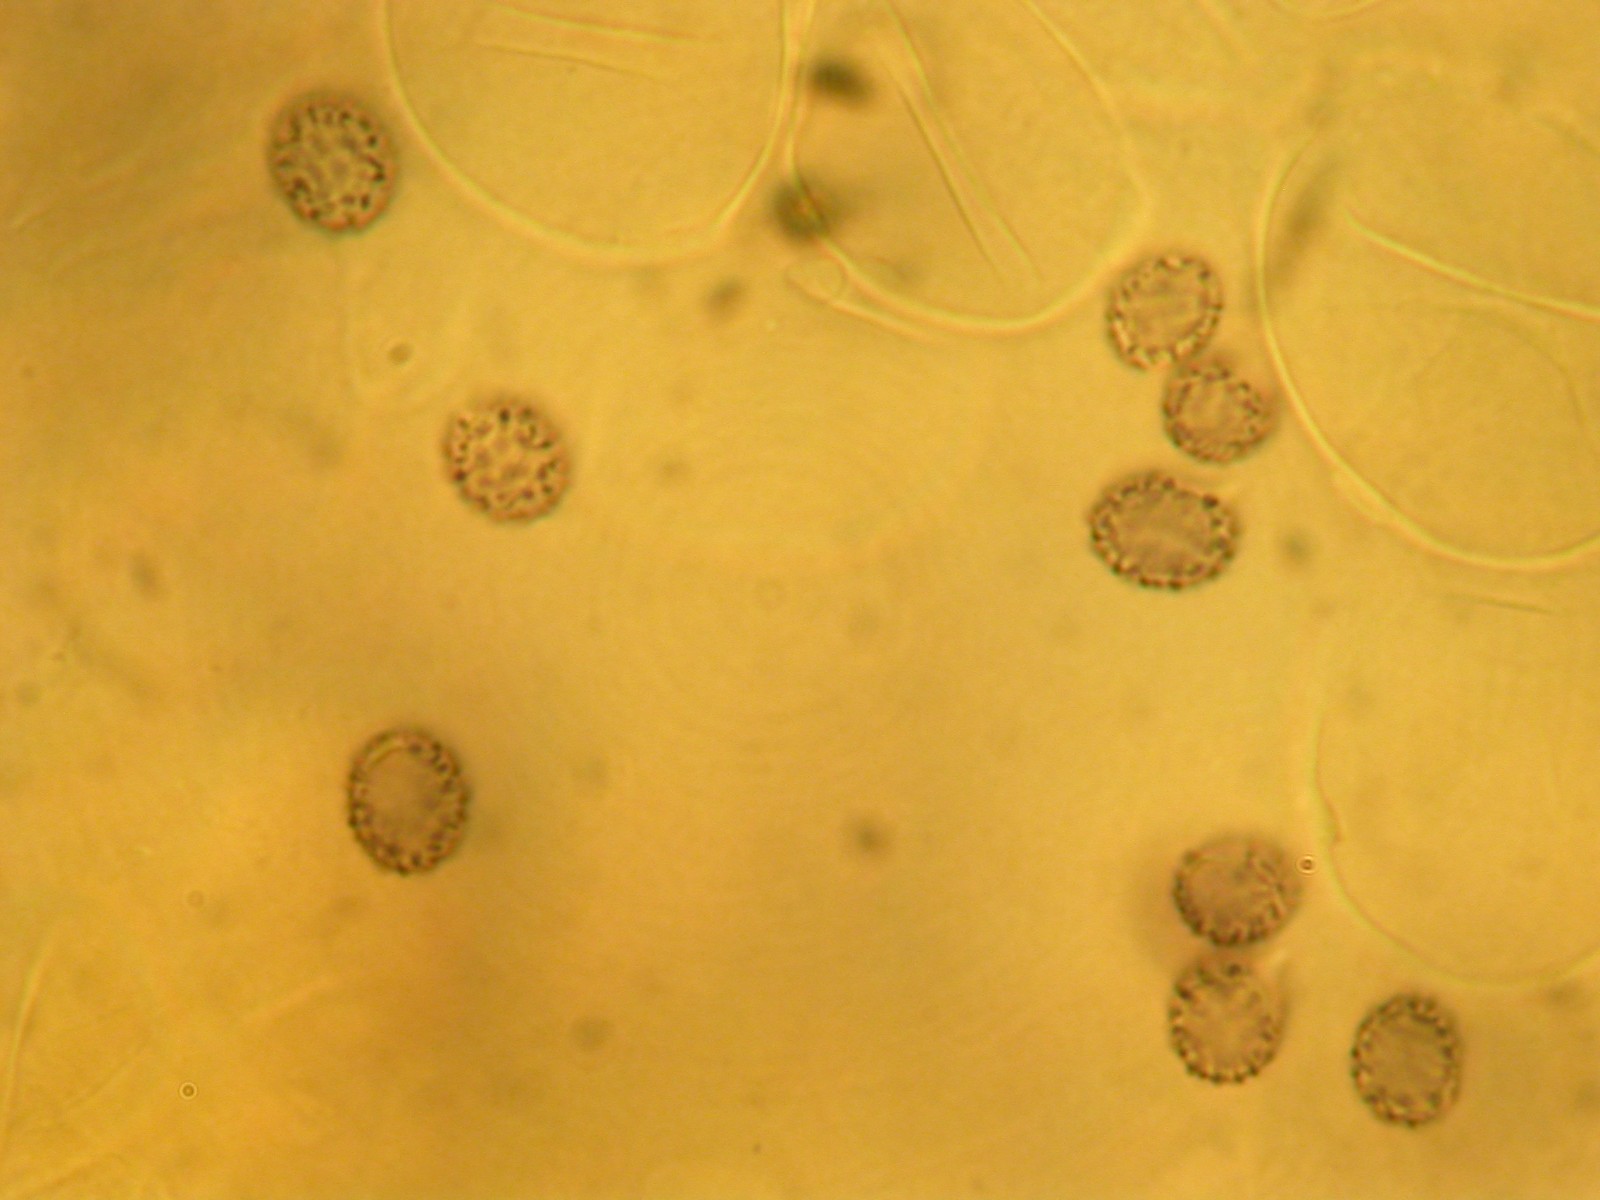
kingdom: Fungi
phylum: Basidiomycota
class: Agaricomycetes
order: Russulales
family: Russulaceae
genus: Russula
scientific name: Russula
